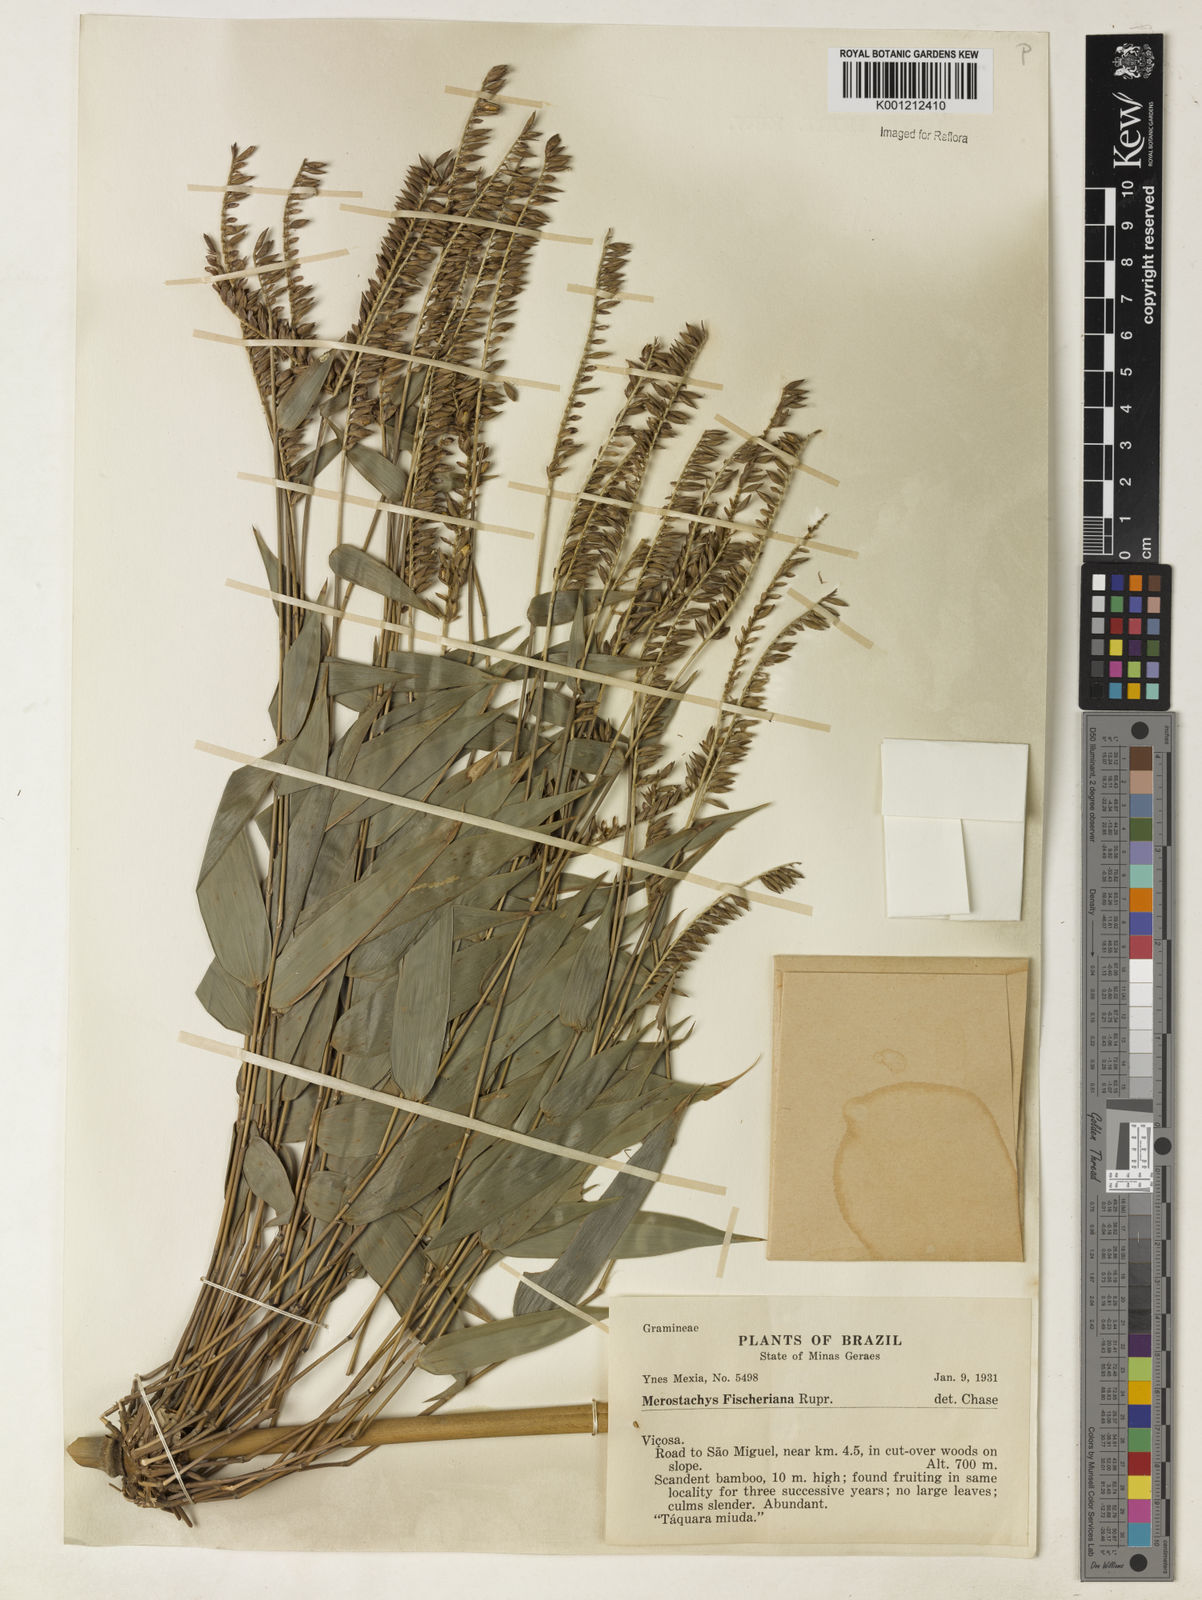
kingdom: Plantae
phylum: Tracheophyta
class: Liliopsida
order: Poales
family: Poaceae
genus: Merostachys
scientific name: Merostachys
